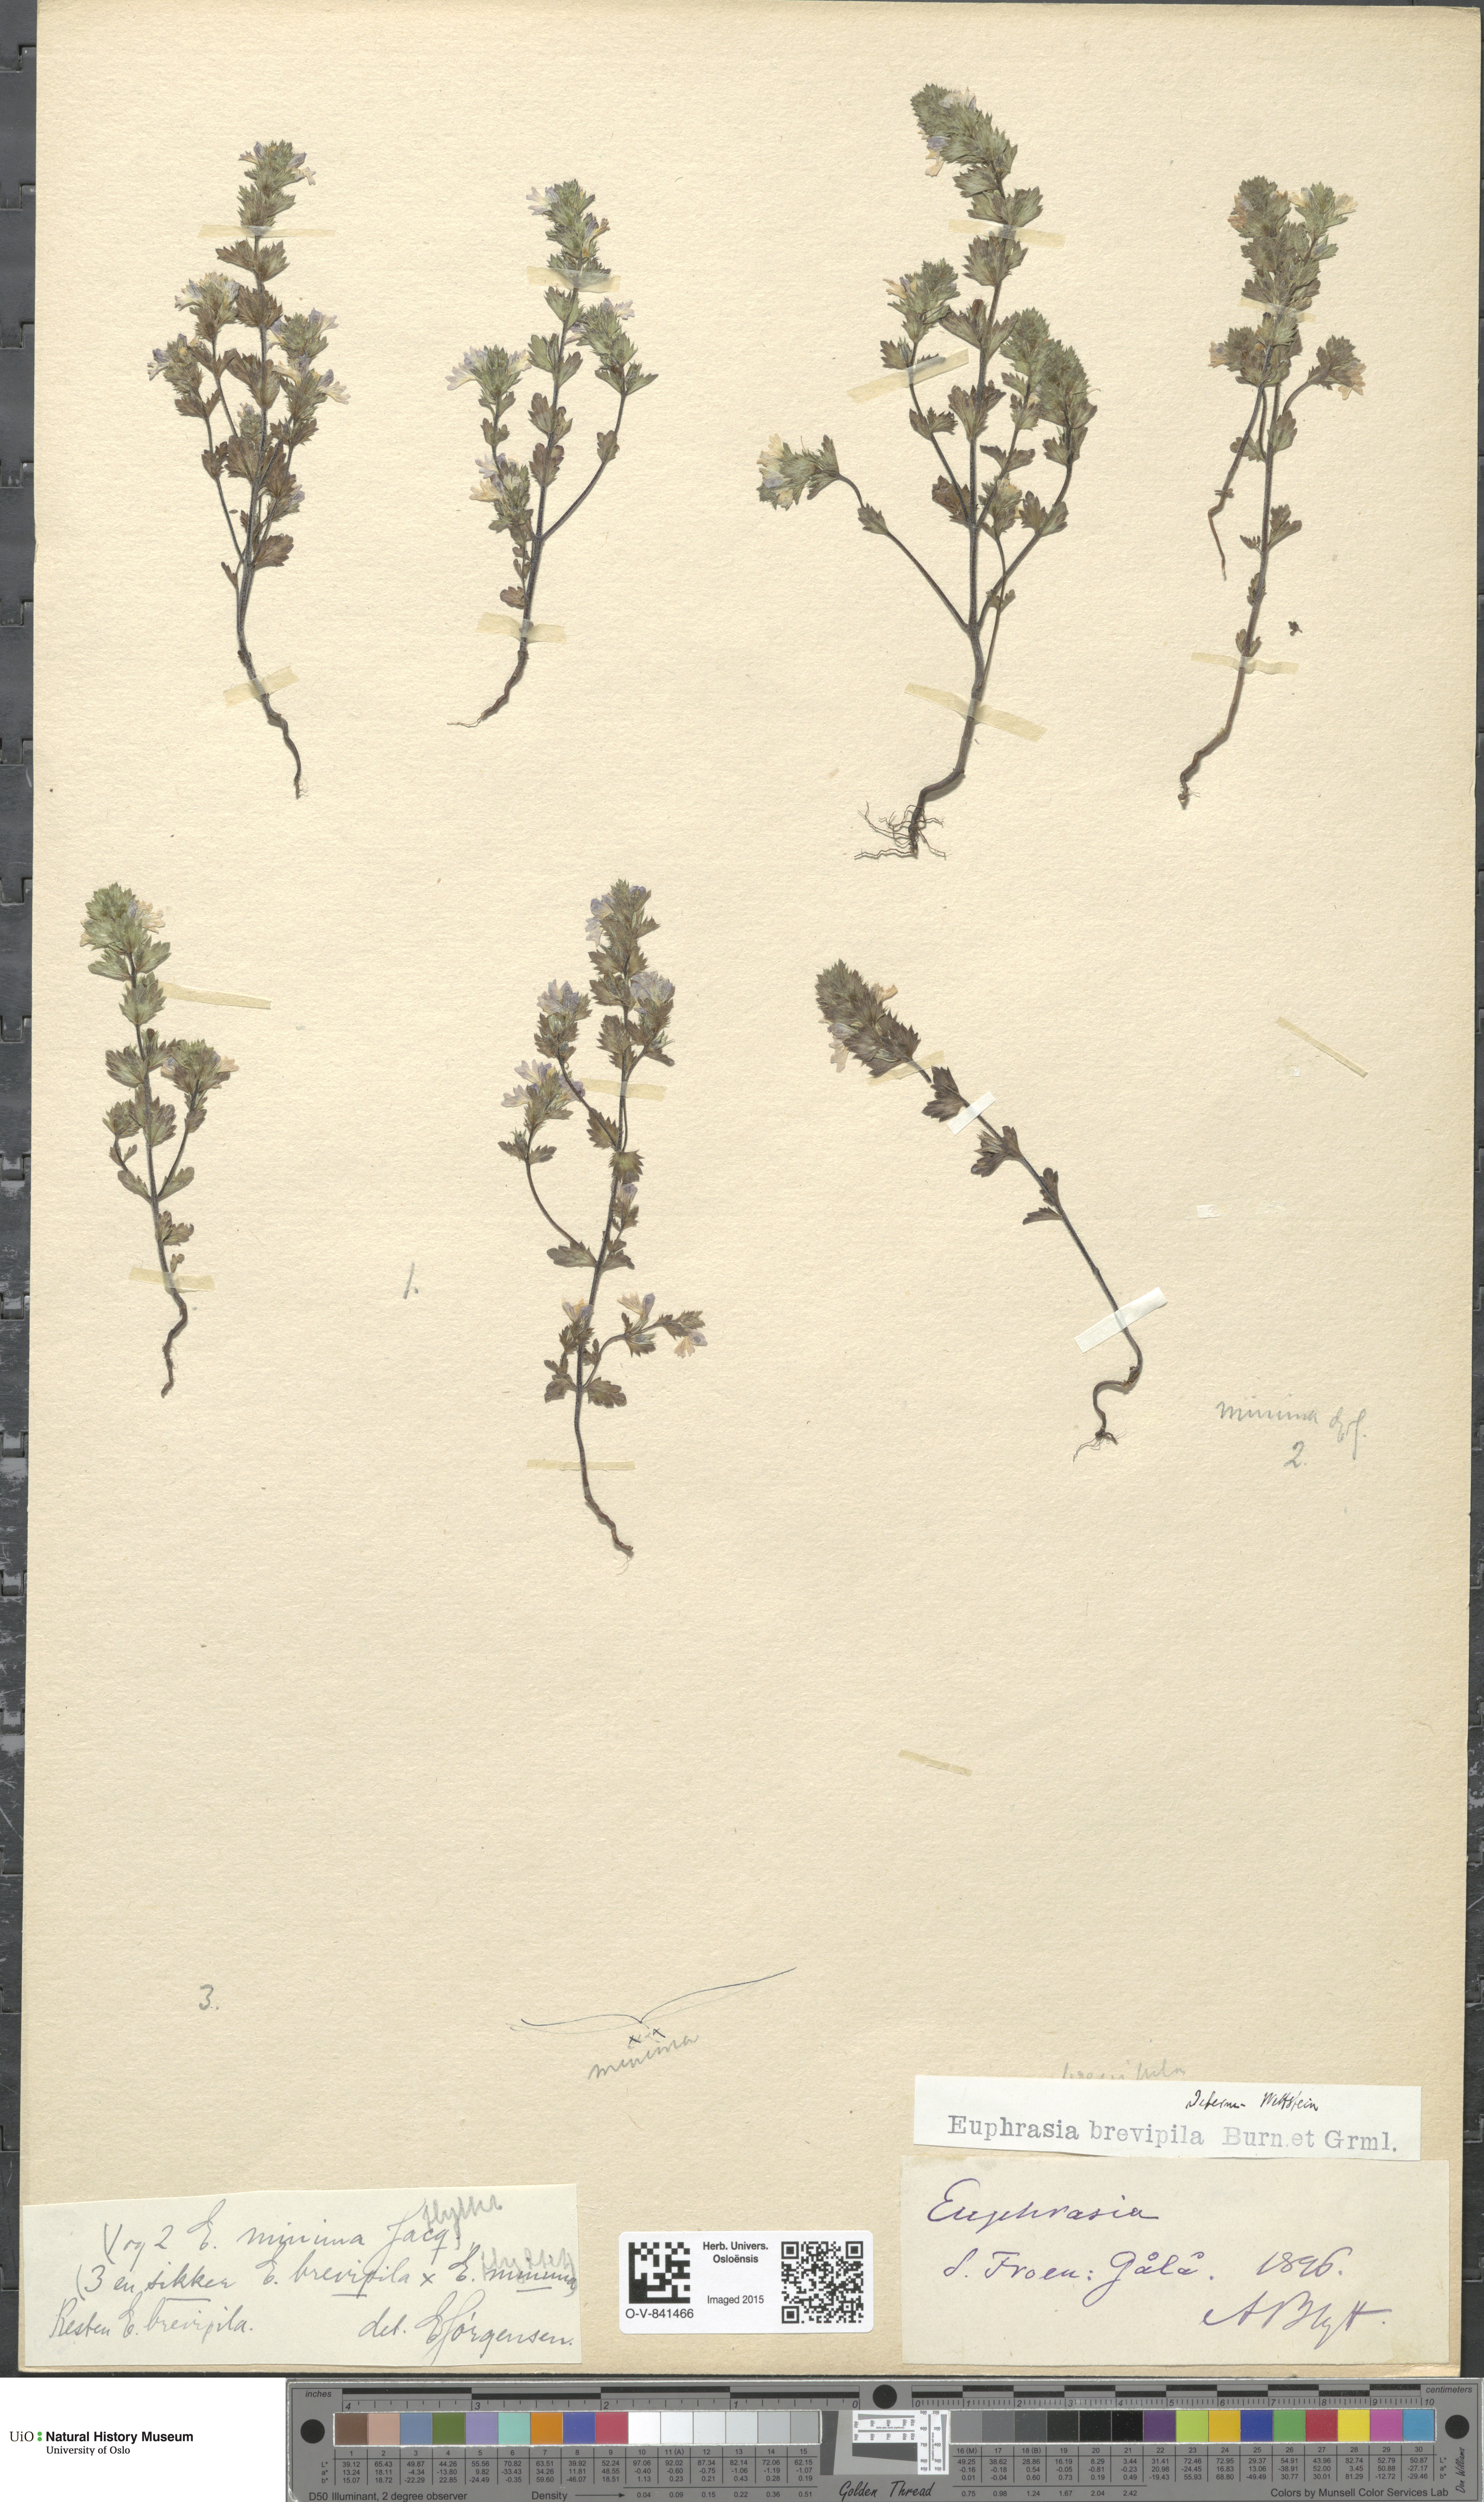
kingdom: Plantae
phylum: Tracheophyta
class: Magnoliopsida
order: Lamiales
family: Orobanchaceae
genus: Euphrasia
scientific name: Euphrasia vernalis
